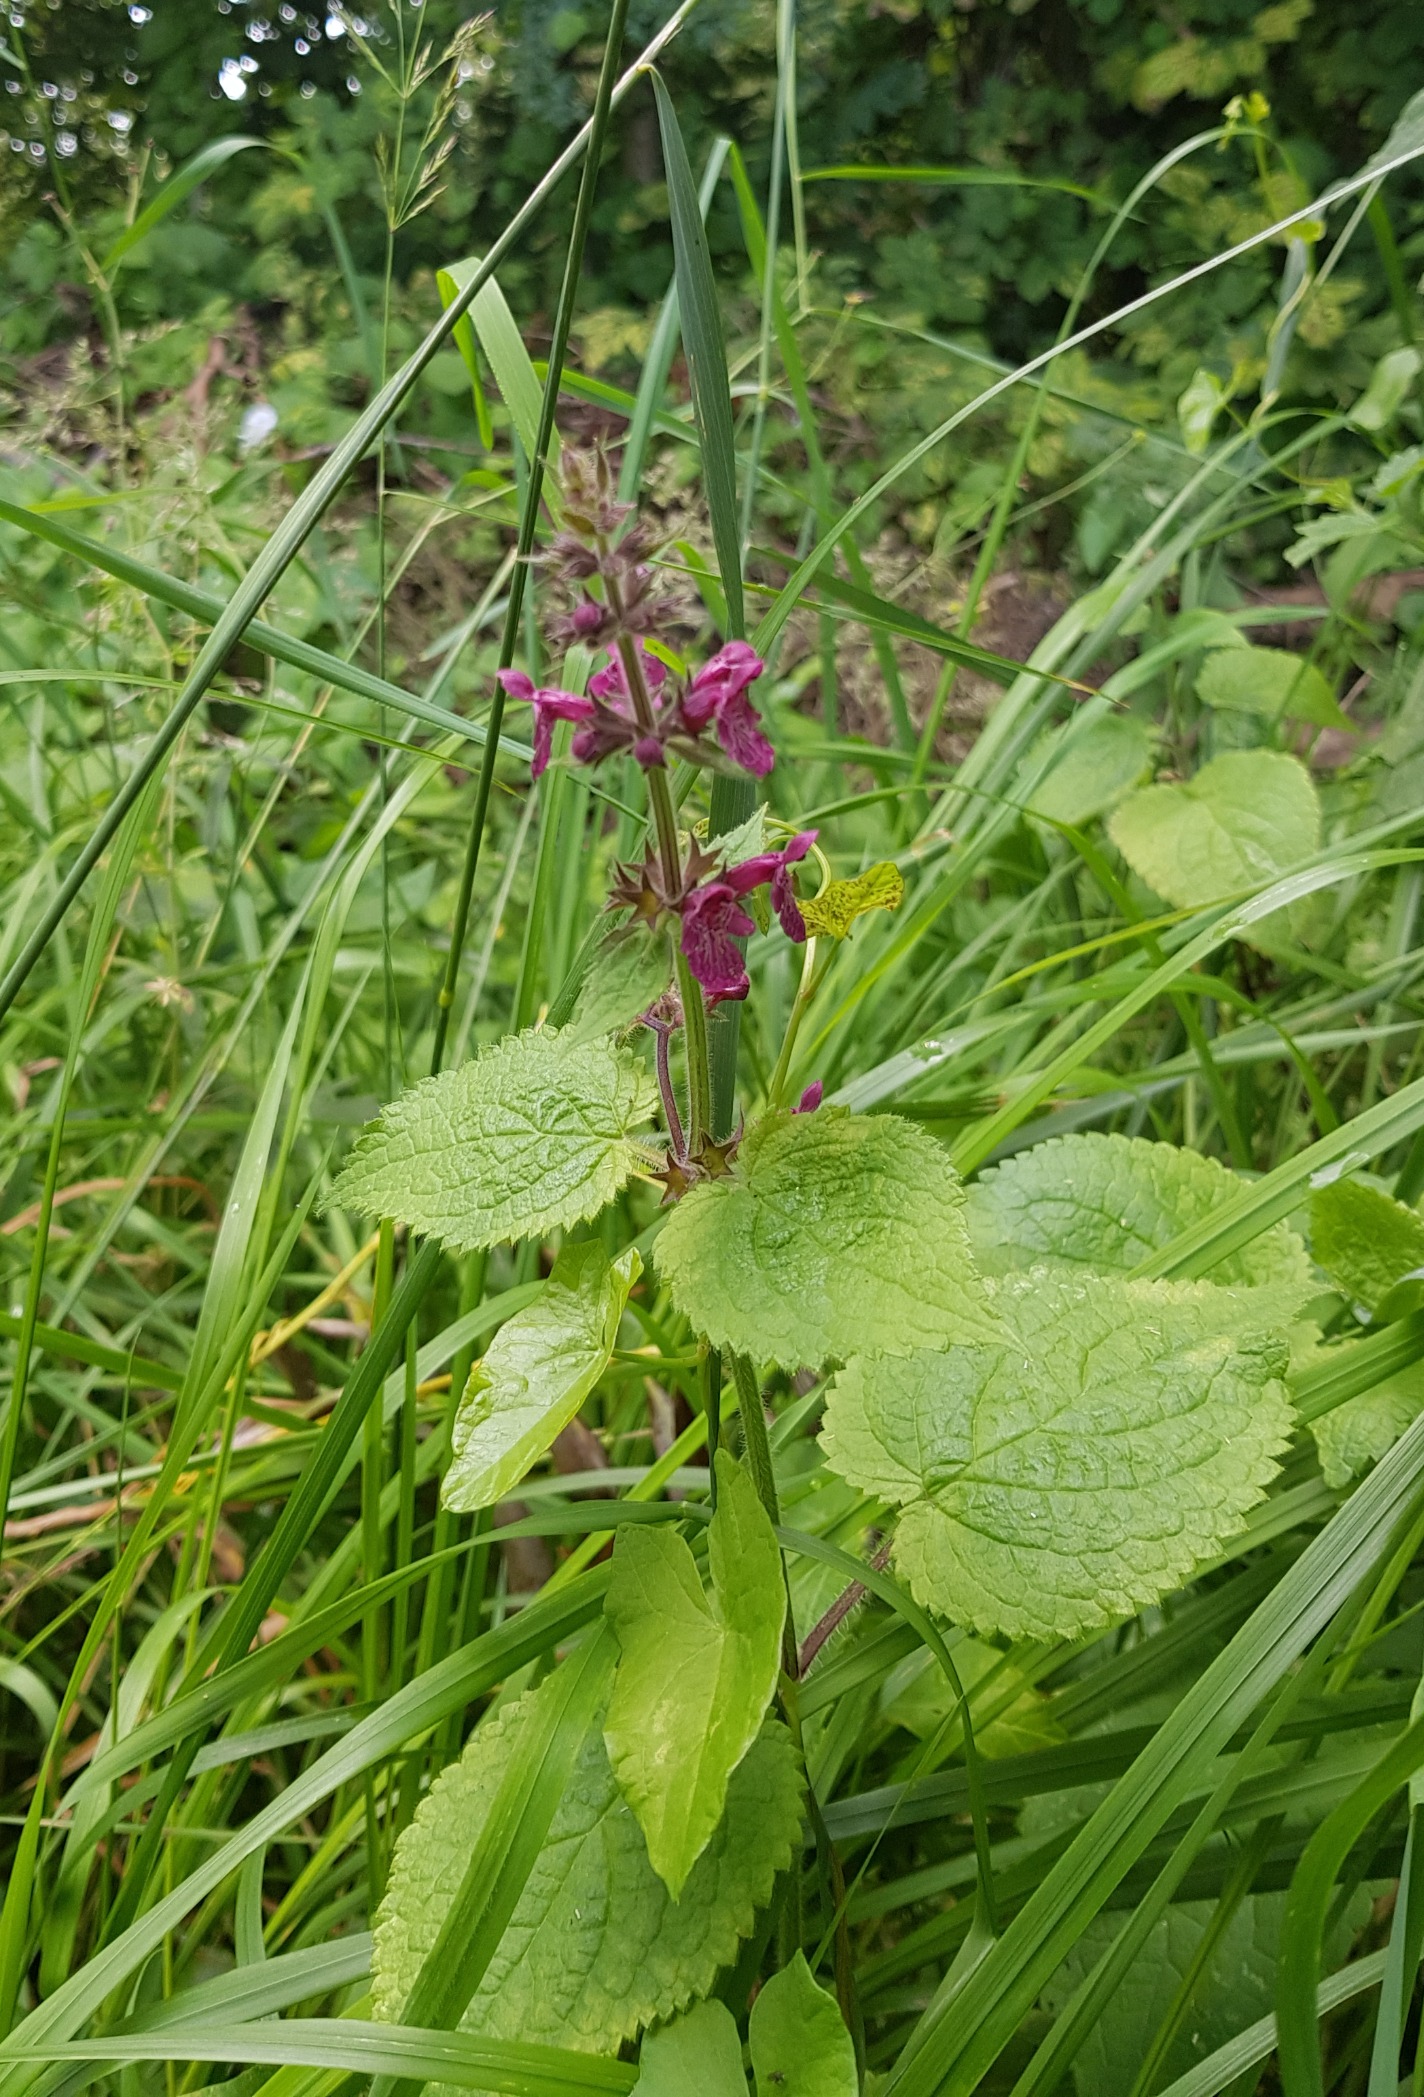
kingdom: Plantae
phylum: Tracheophyta
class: Magnoliopsida
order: Lamiales
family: Lamiaceae
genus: Stachys
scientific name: Stachys sylvatica
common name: Skov-galtetand
